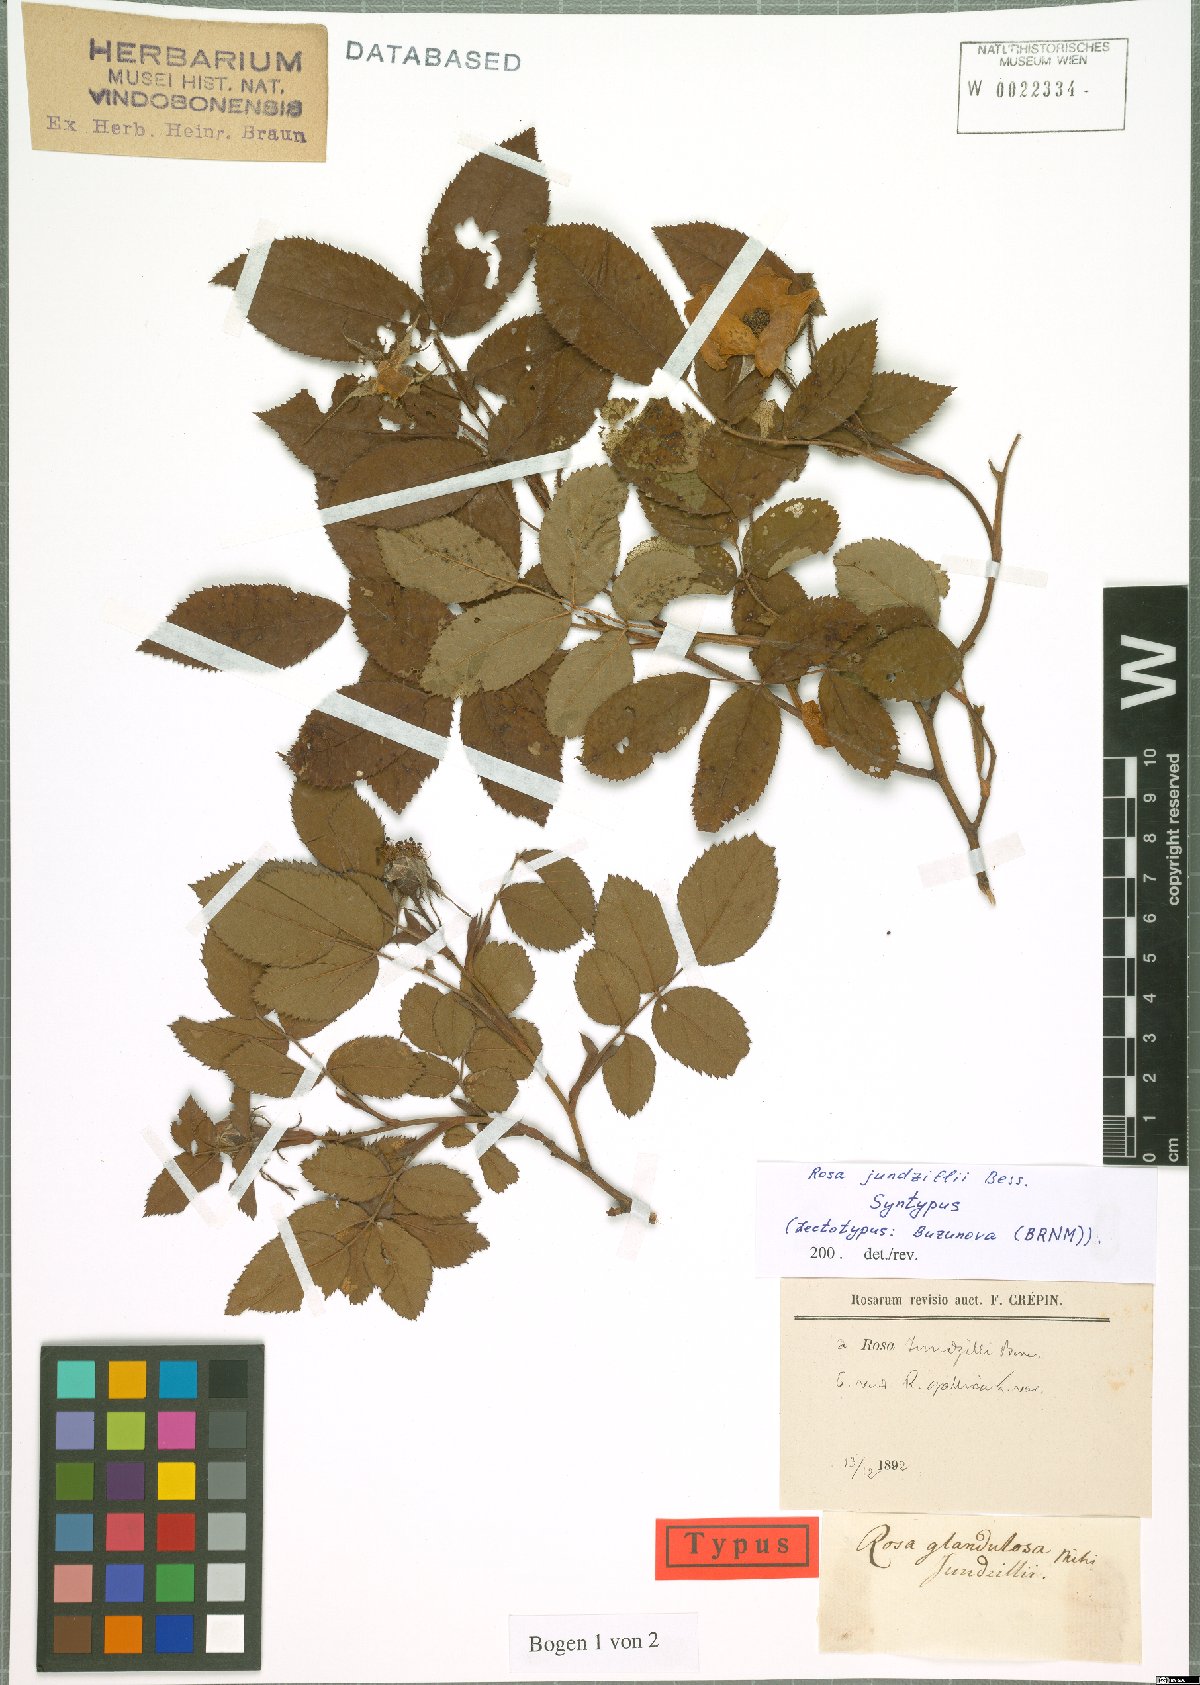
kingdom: Plantae
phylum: Tracheophyta
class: Magnoliopsida
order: Rosales
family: Rosaceae
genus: Rosa
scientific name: Rosa marginata
